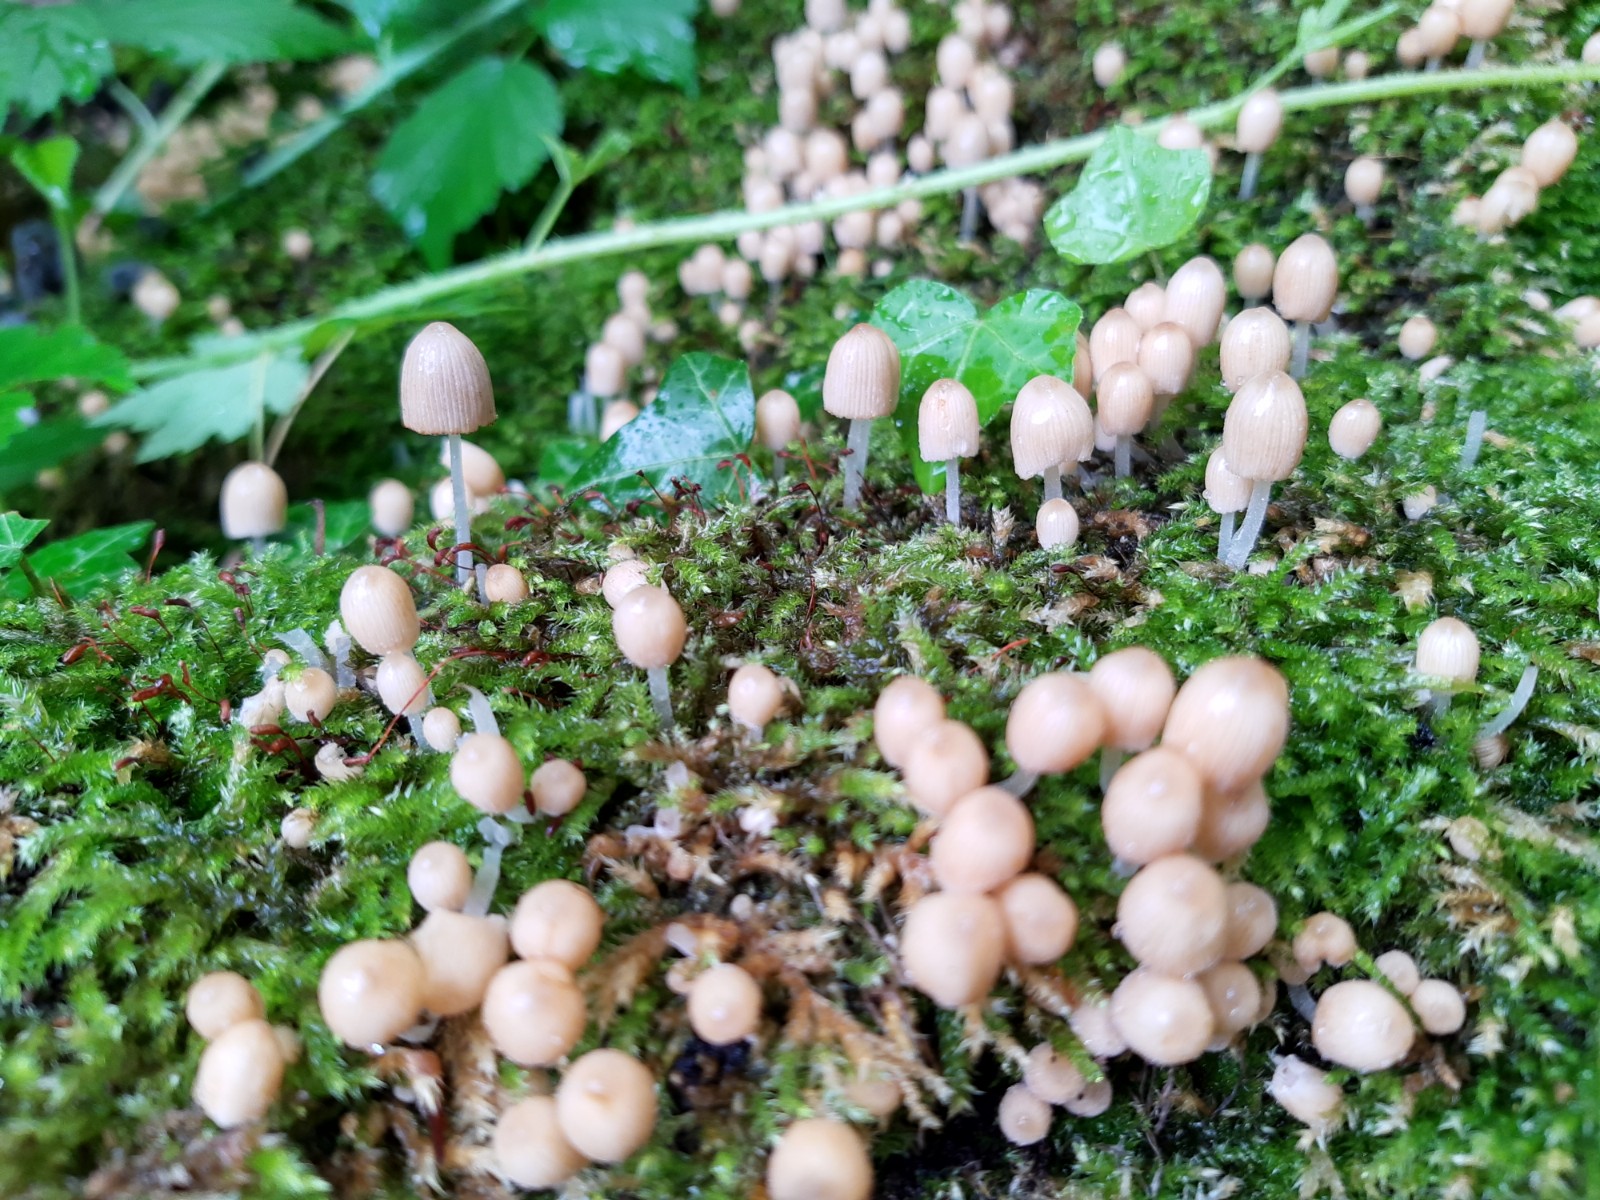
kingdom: Fungi
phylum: Basidiomycota
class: Agaricomycetes
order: Agaricales
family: Psathyrellaceae
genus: Coprinellus
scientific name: Coprinellus disseminatus
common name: bredsået blækhat
